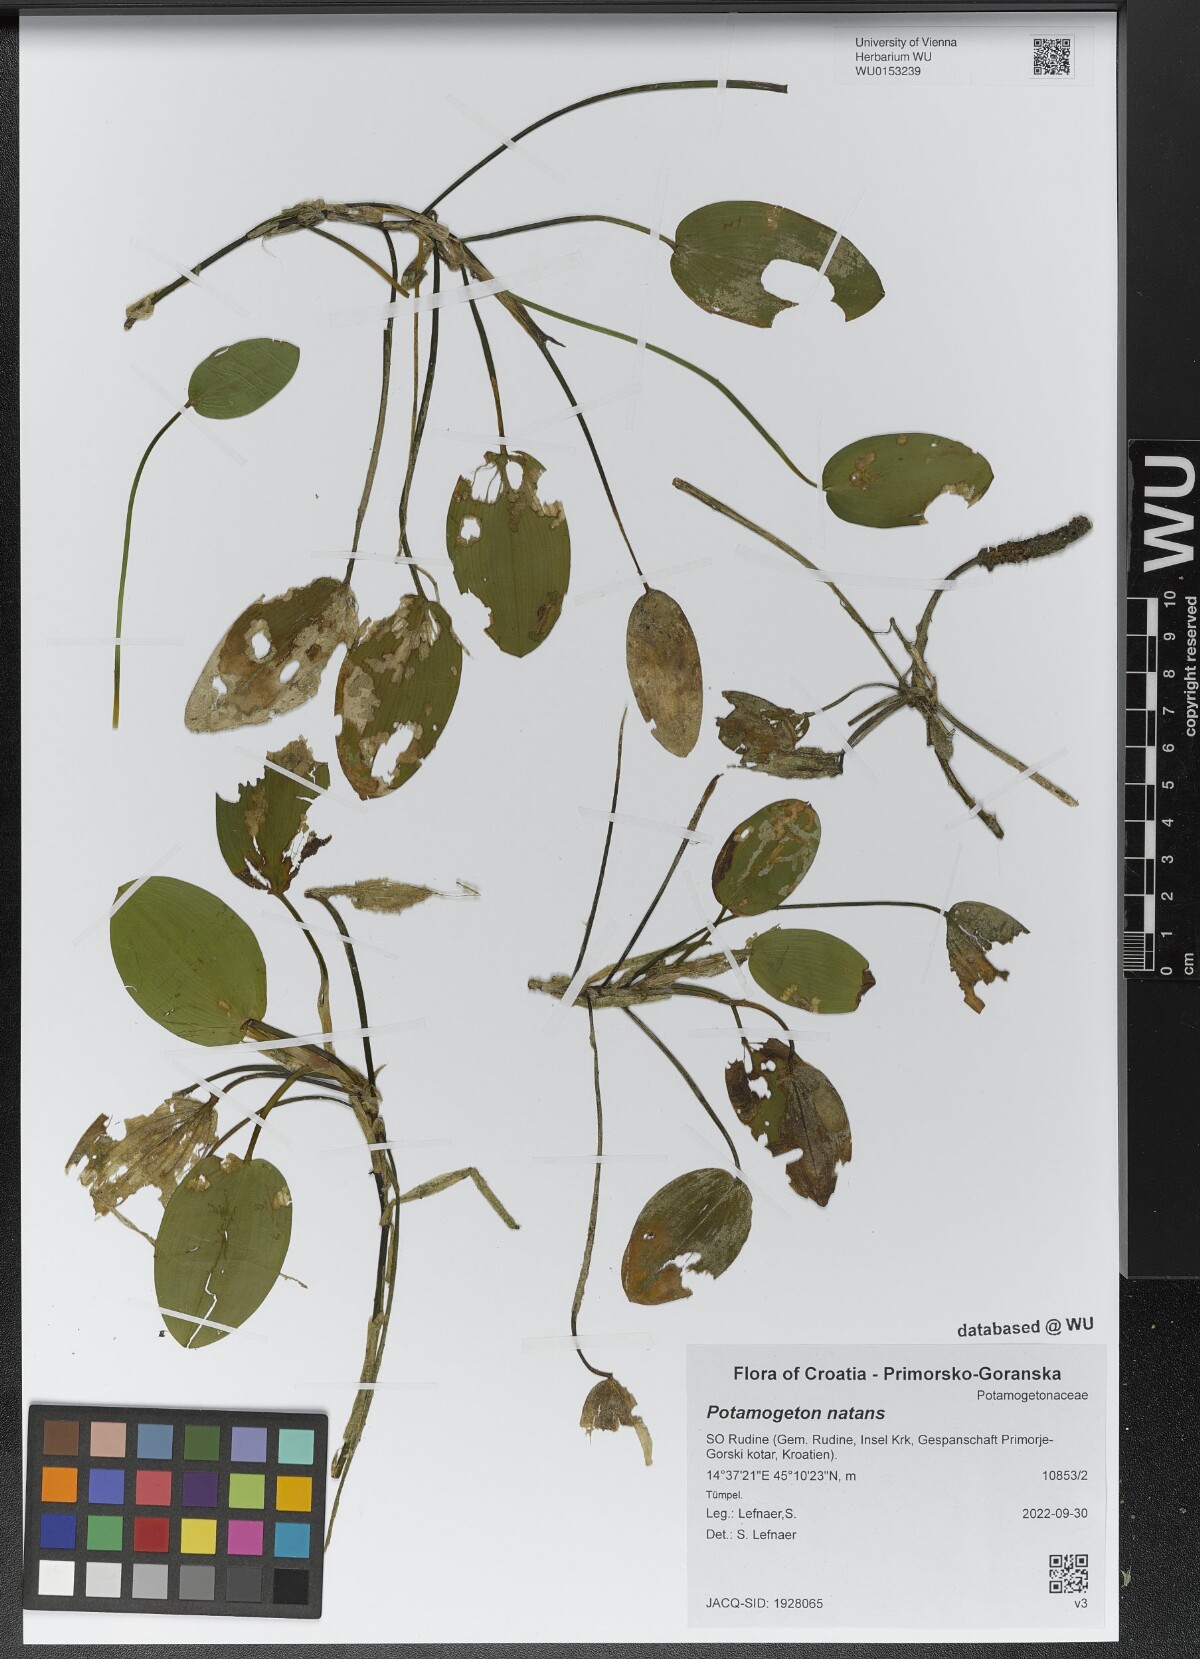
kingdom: Plantae
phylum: Tracheophyta
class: Liliopsida
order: Alismatales
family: Potamogetonaceae
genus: Potamogeton
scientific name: Potamogeton natans
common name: Broad-leaved pondweed
